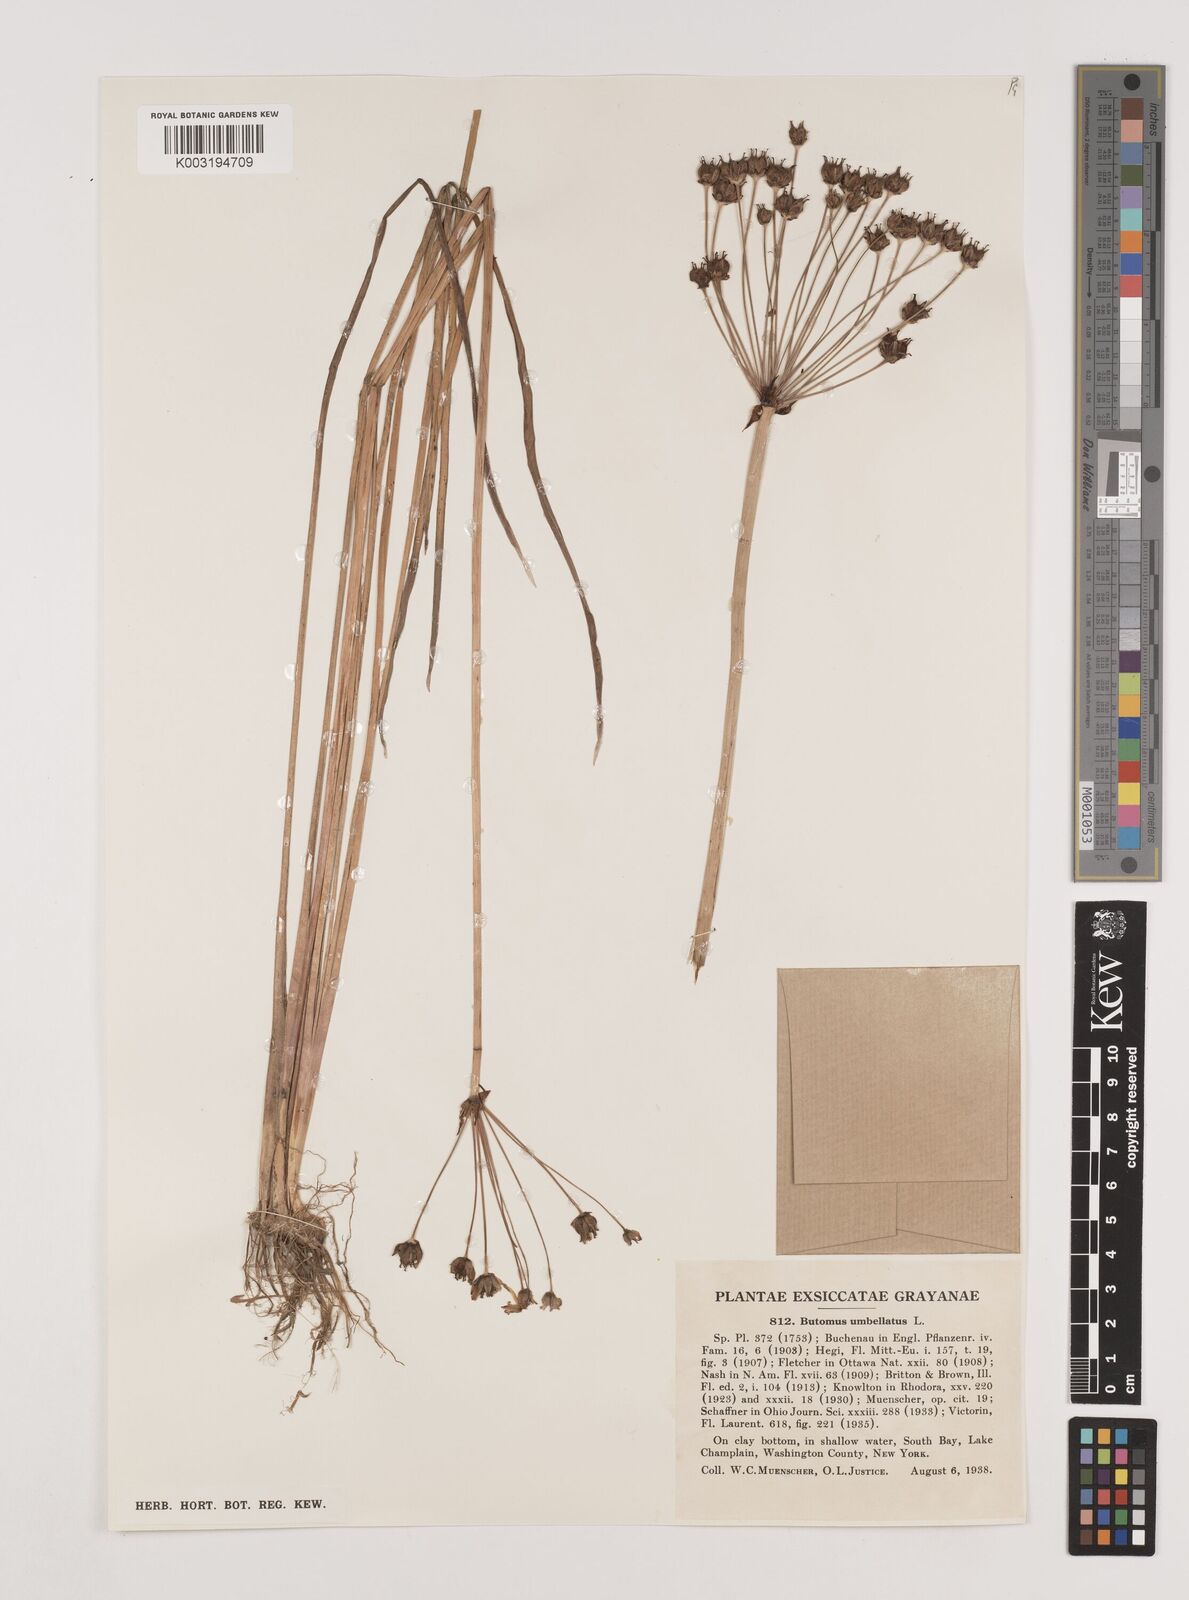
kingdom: Plantae
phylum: Tracheophyta
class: Liliopsida
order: Alismatales
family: Butomaceae
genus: Butomus
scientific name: Butomus umbellatus
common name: Flowering-rush
